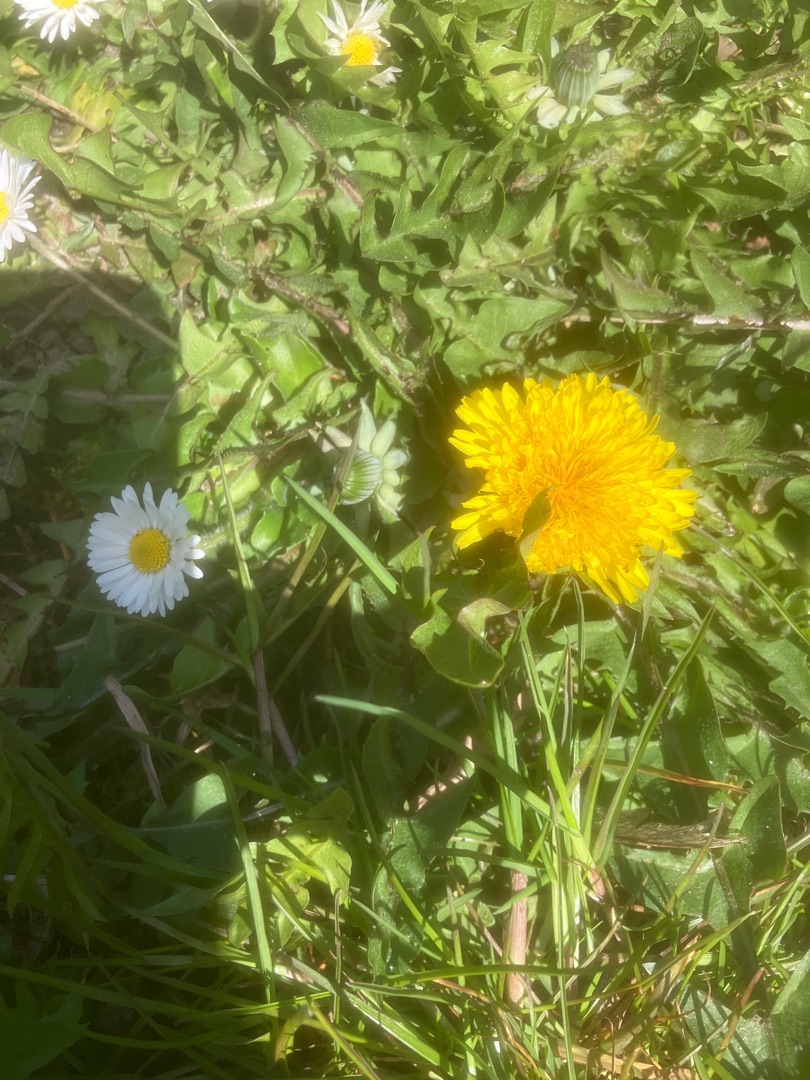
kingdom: Plantae
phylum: Tracheophyta
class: Magnoliopsida
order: Asterales
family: Asteraceae
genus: Taraxacum
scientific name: Taraxacum
